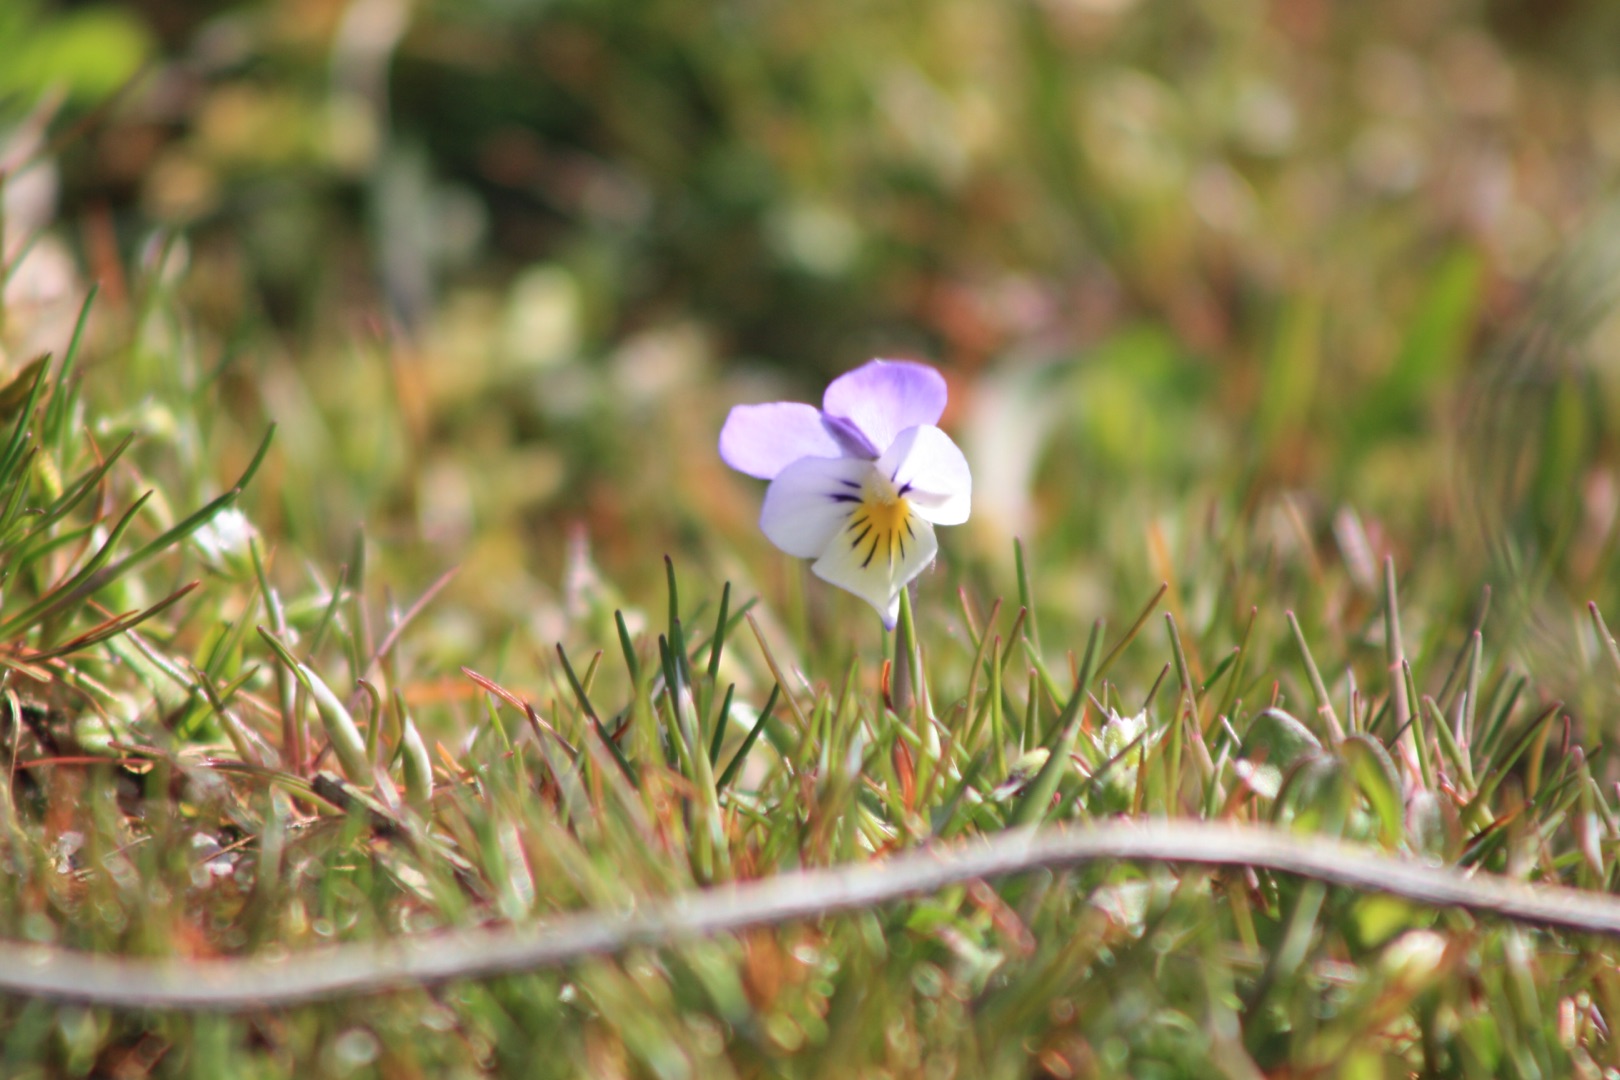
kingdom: Plantae
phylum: Tracheophyta
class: Magnoliopsida
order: Malpighiales
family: Violaceae
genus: Viola
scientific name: Viola tricolor
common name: Stedmoderblomst
